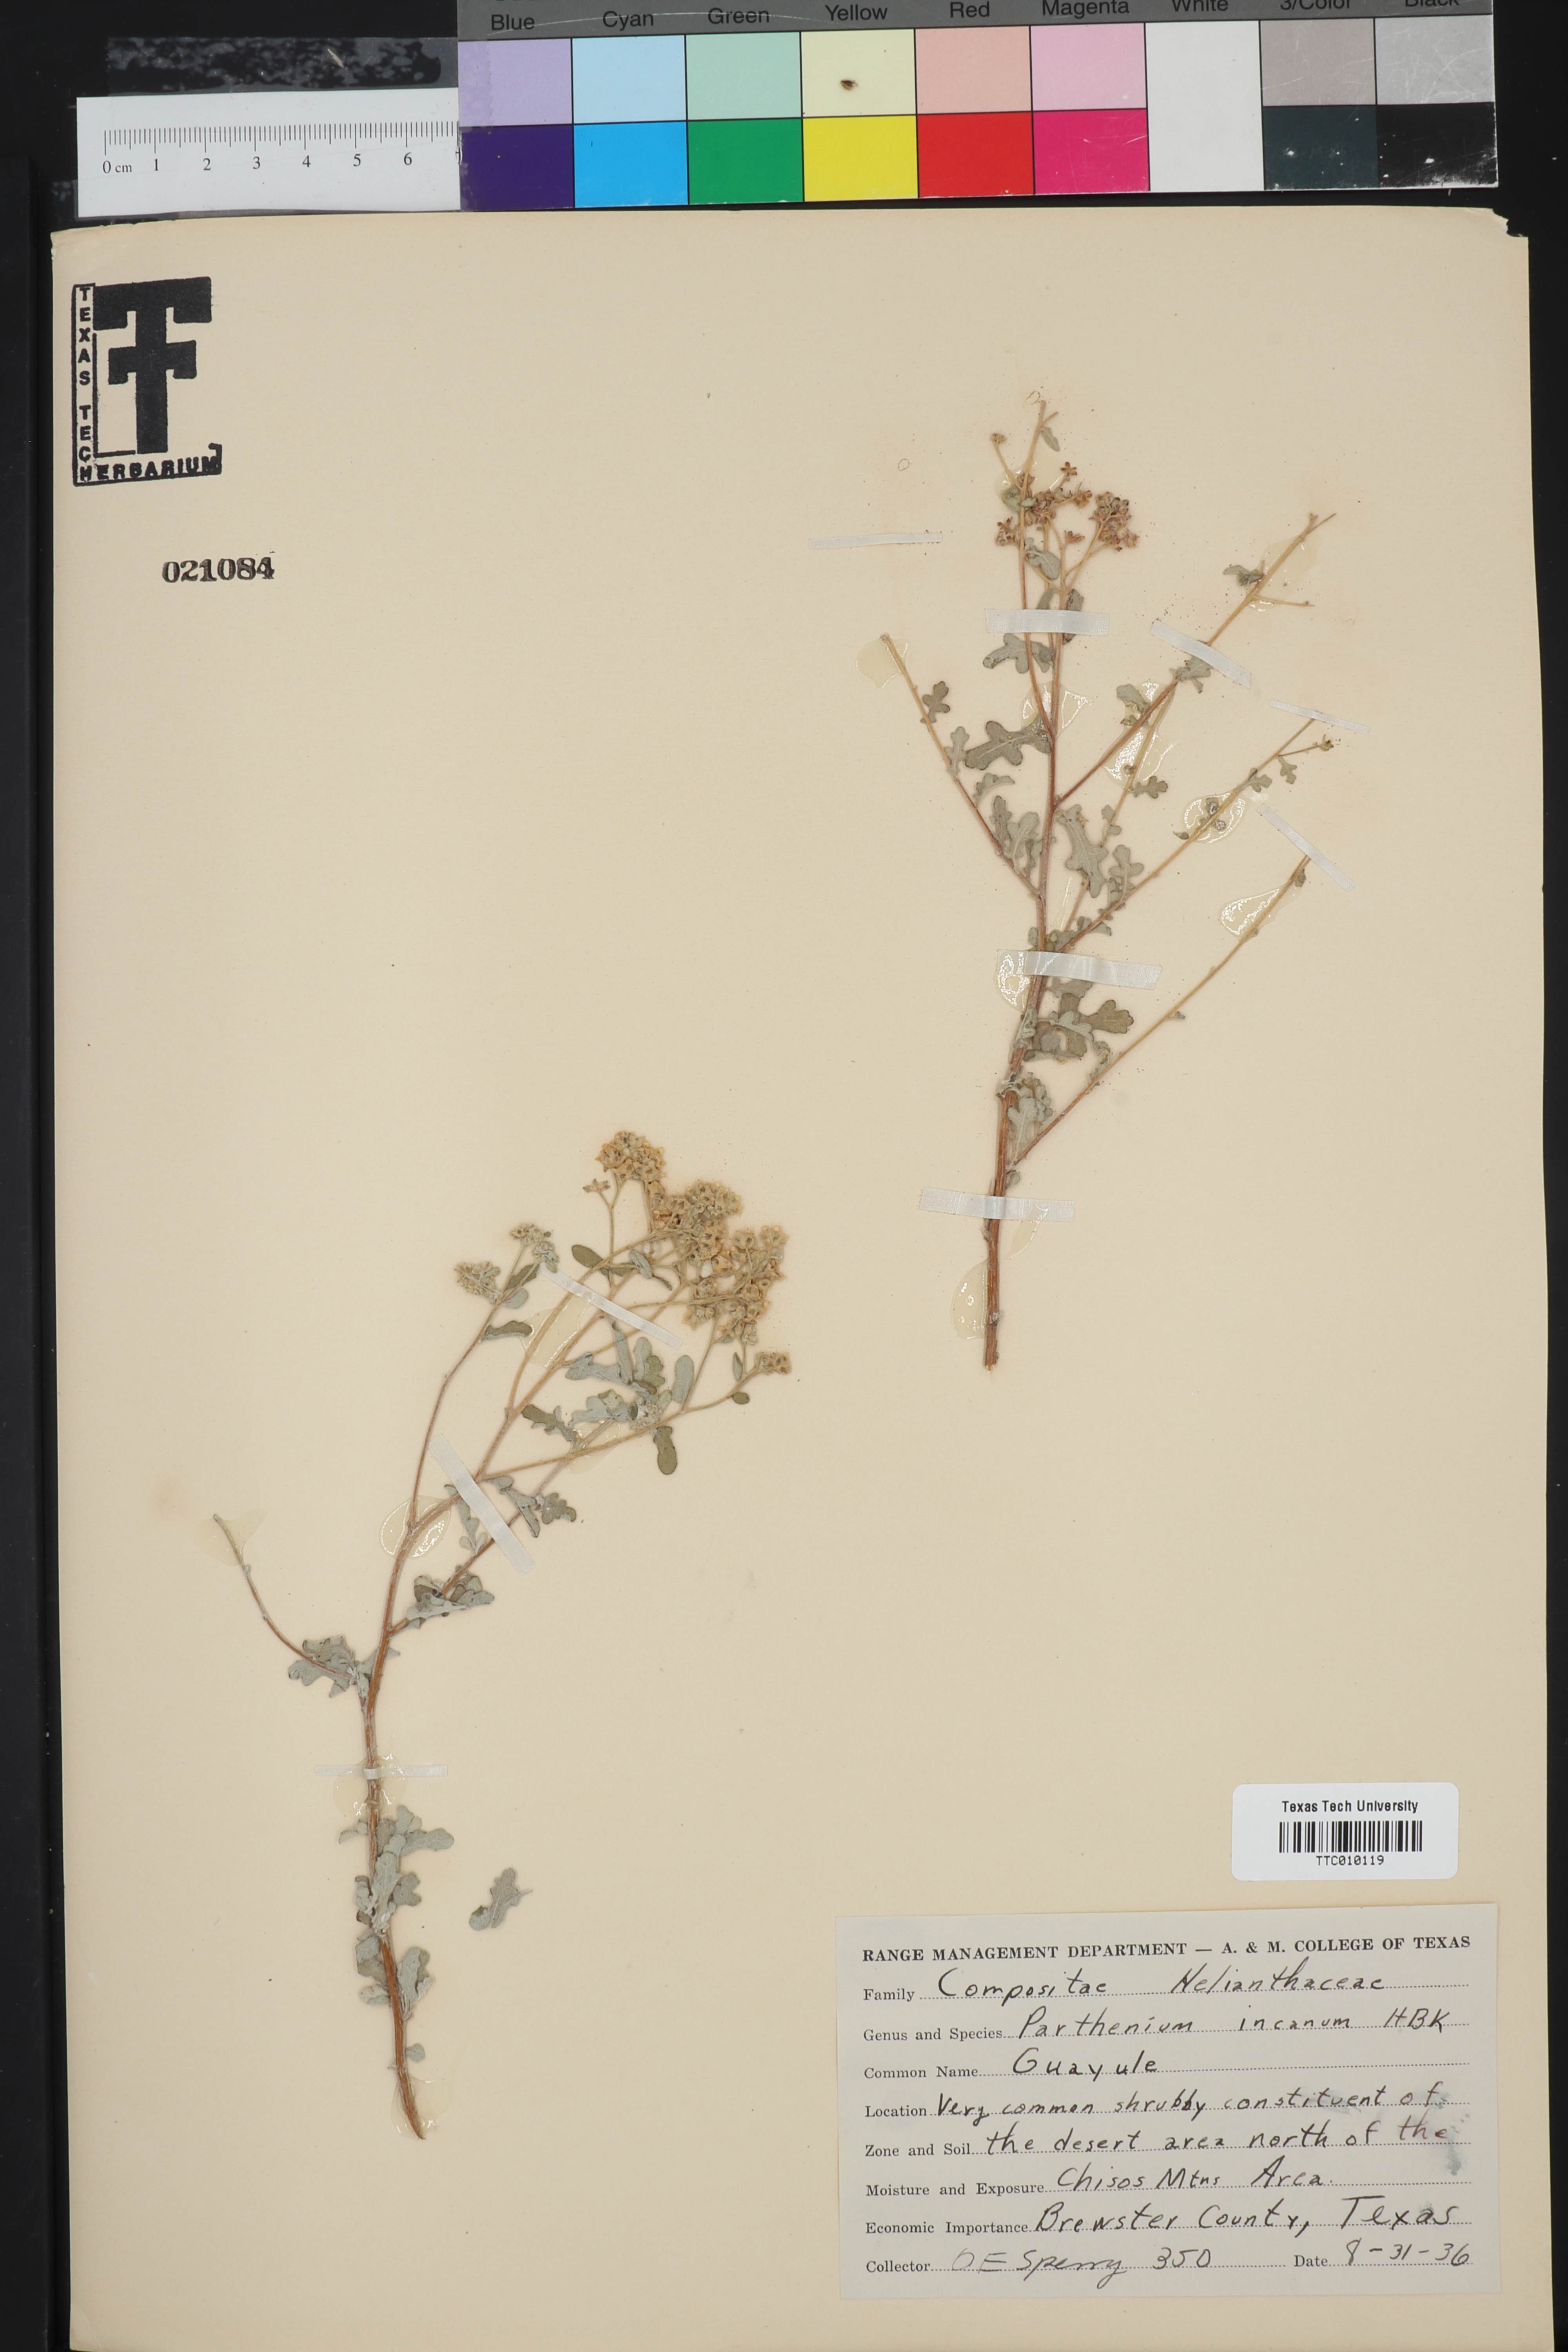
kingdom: Plantae
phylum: Tracheophyta
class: Magnoliopsida
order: Asterales
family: Asteraceae
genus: Parthenium
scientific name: Parthenium incanum
